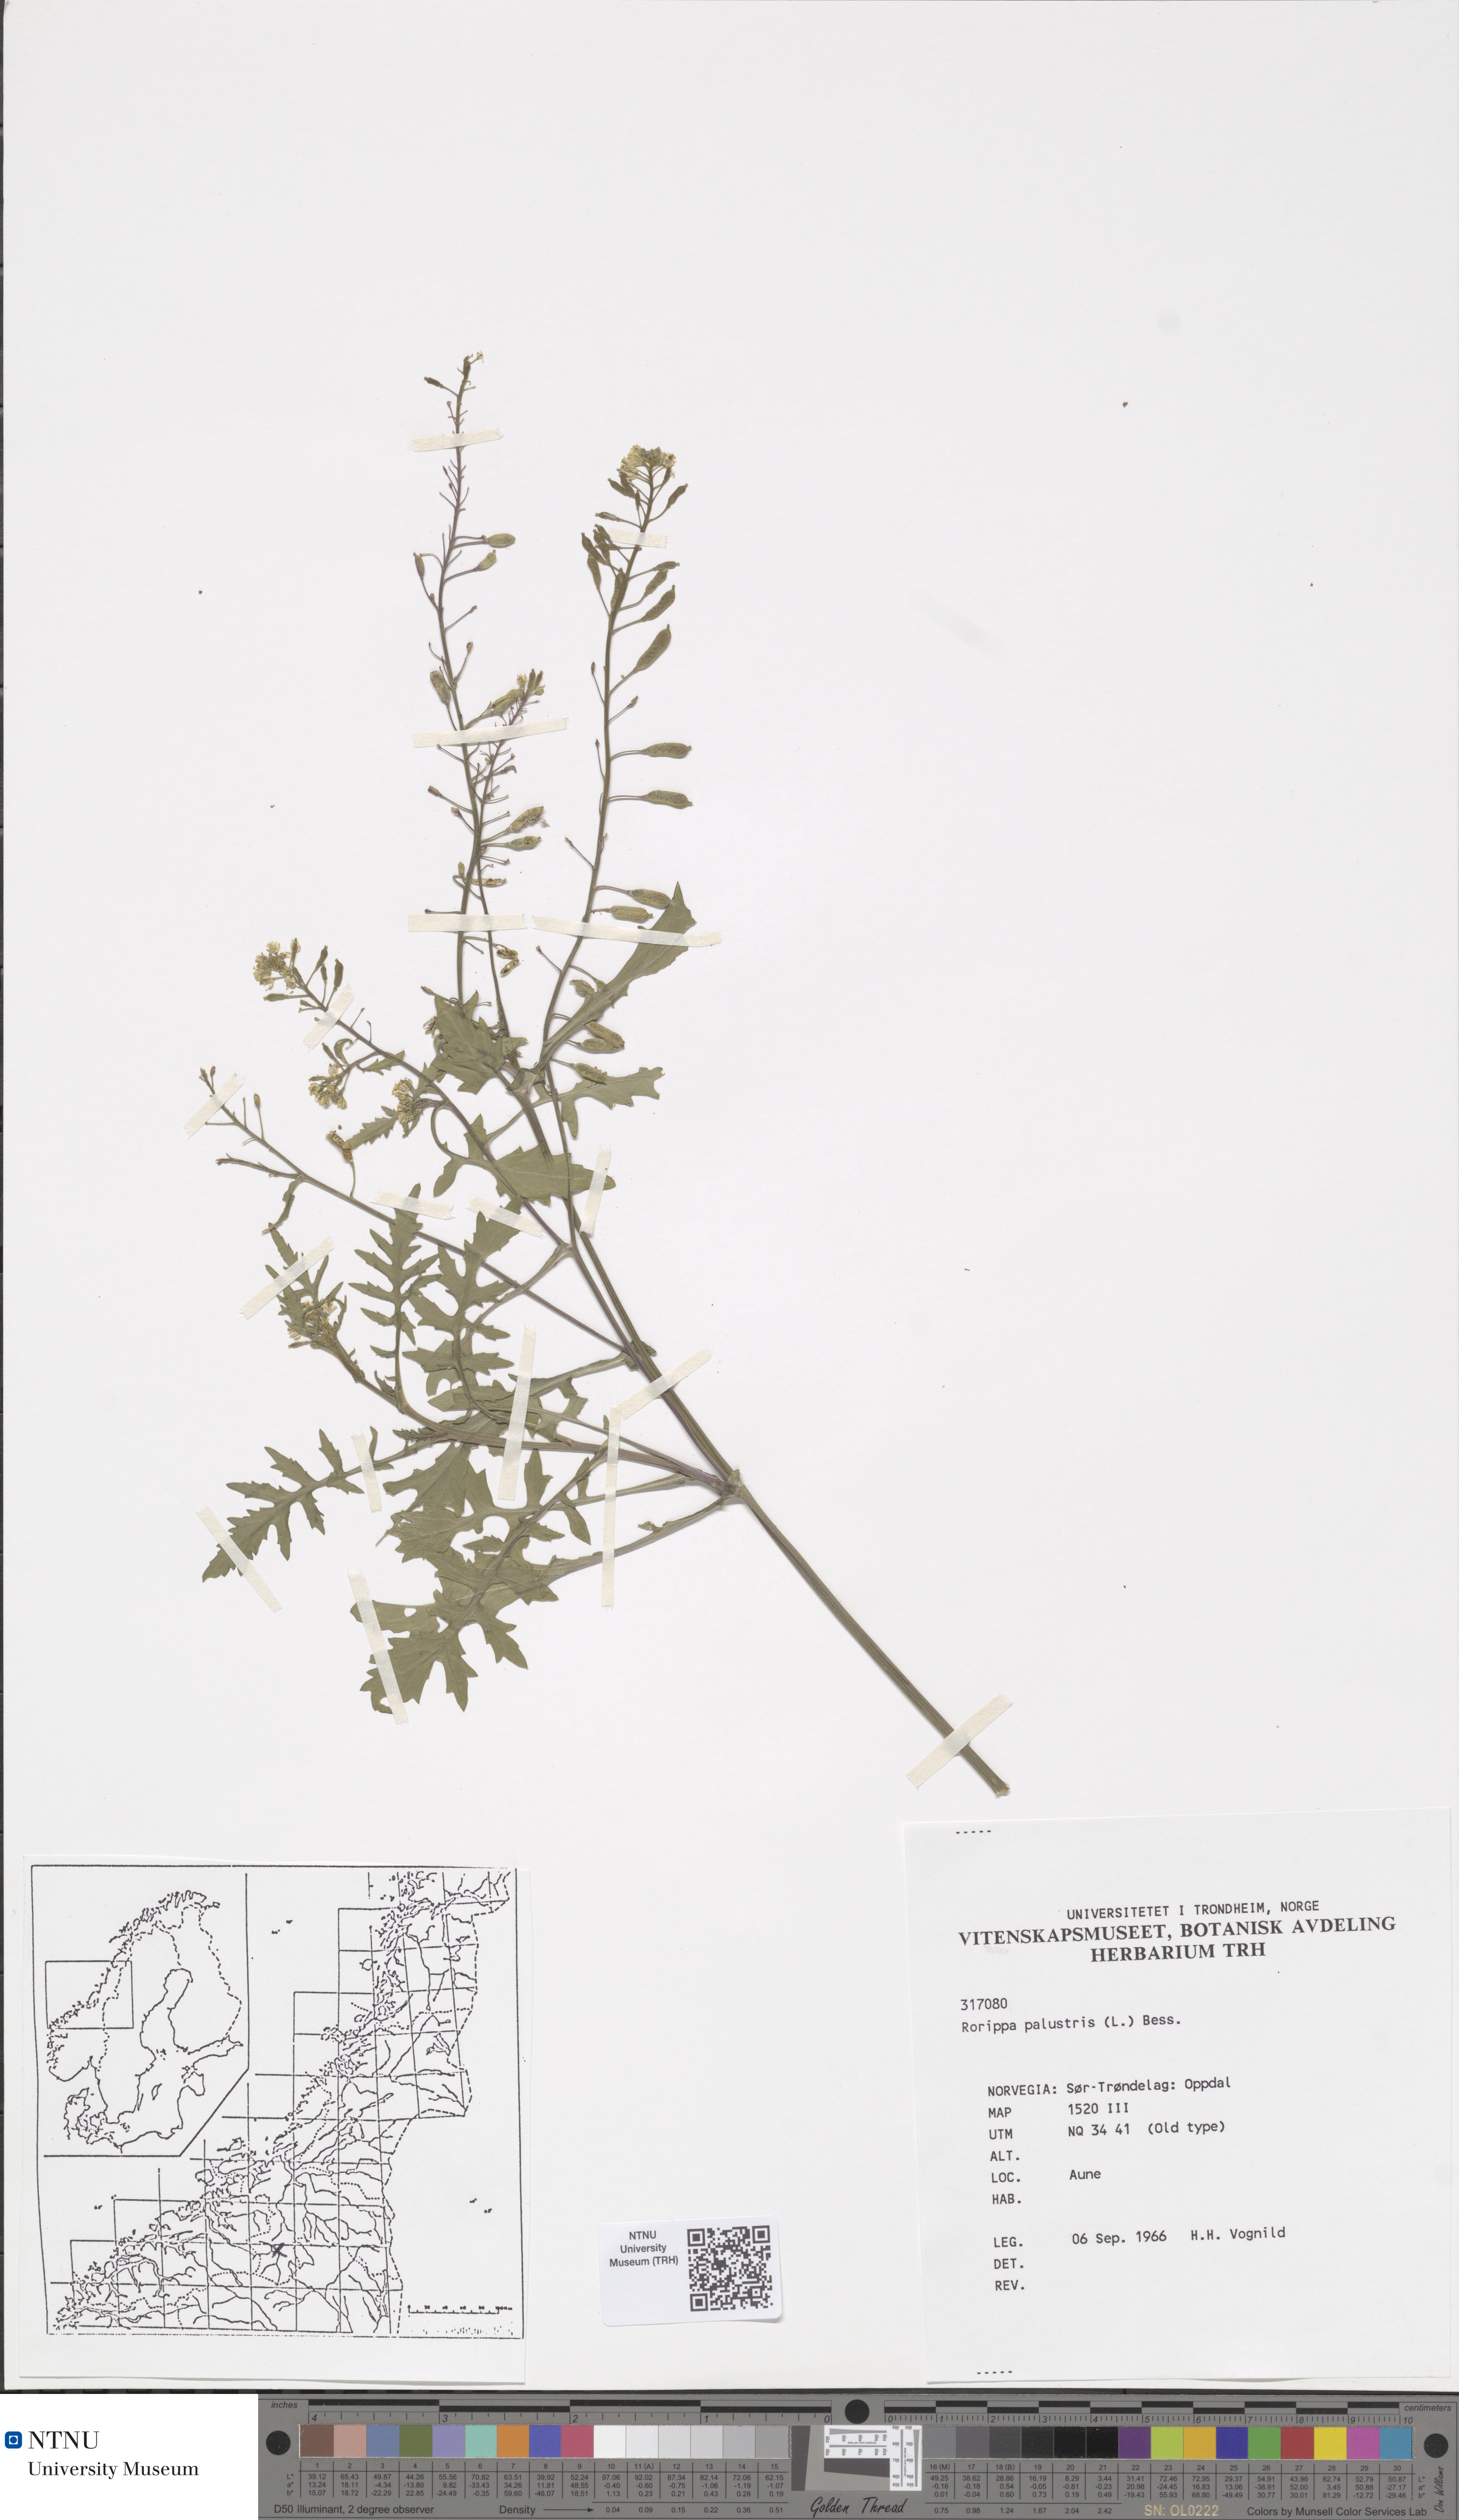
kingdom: Plantae
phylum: Tracheophyta
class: Magnoliopsida
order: Brassicales
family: Brassicaceae
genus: Rorippa
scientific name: Rorippa palustris
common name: Marsh yellow-cress
